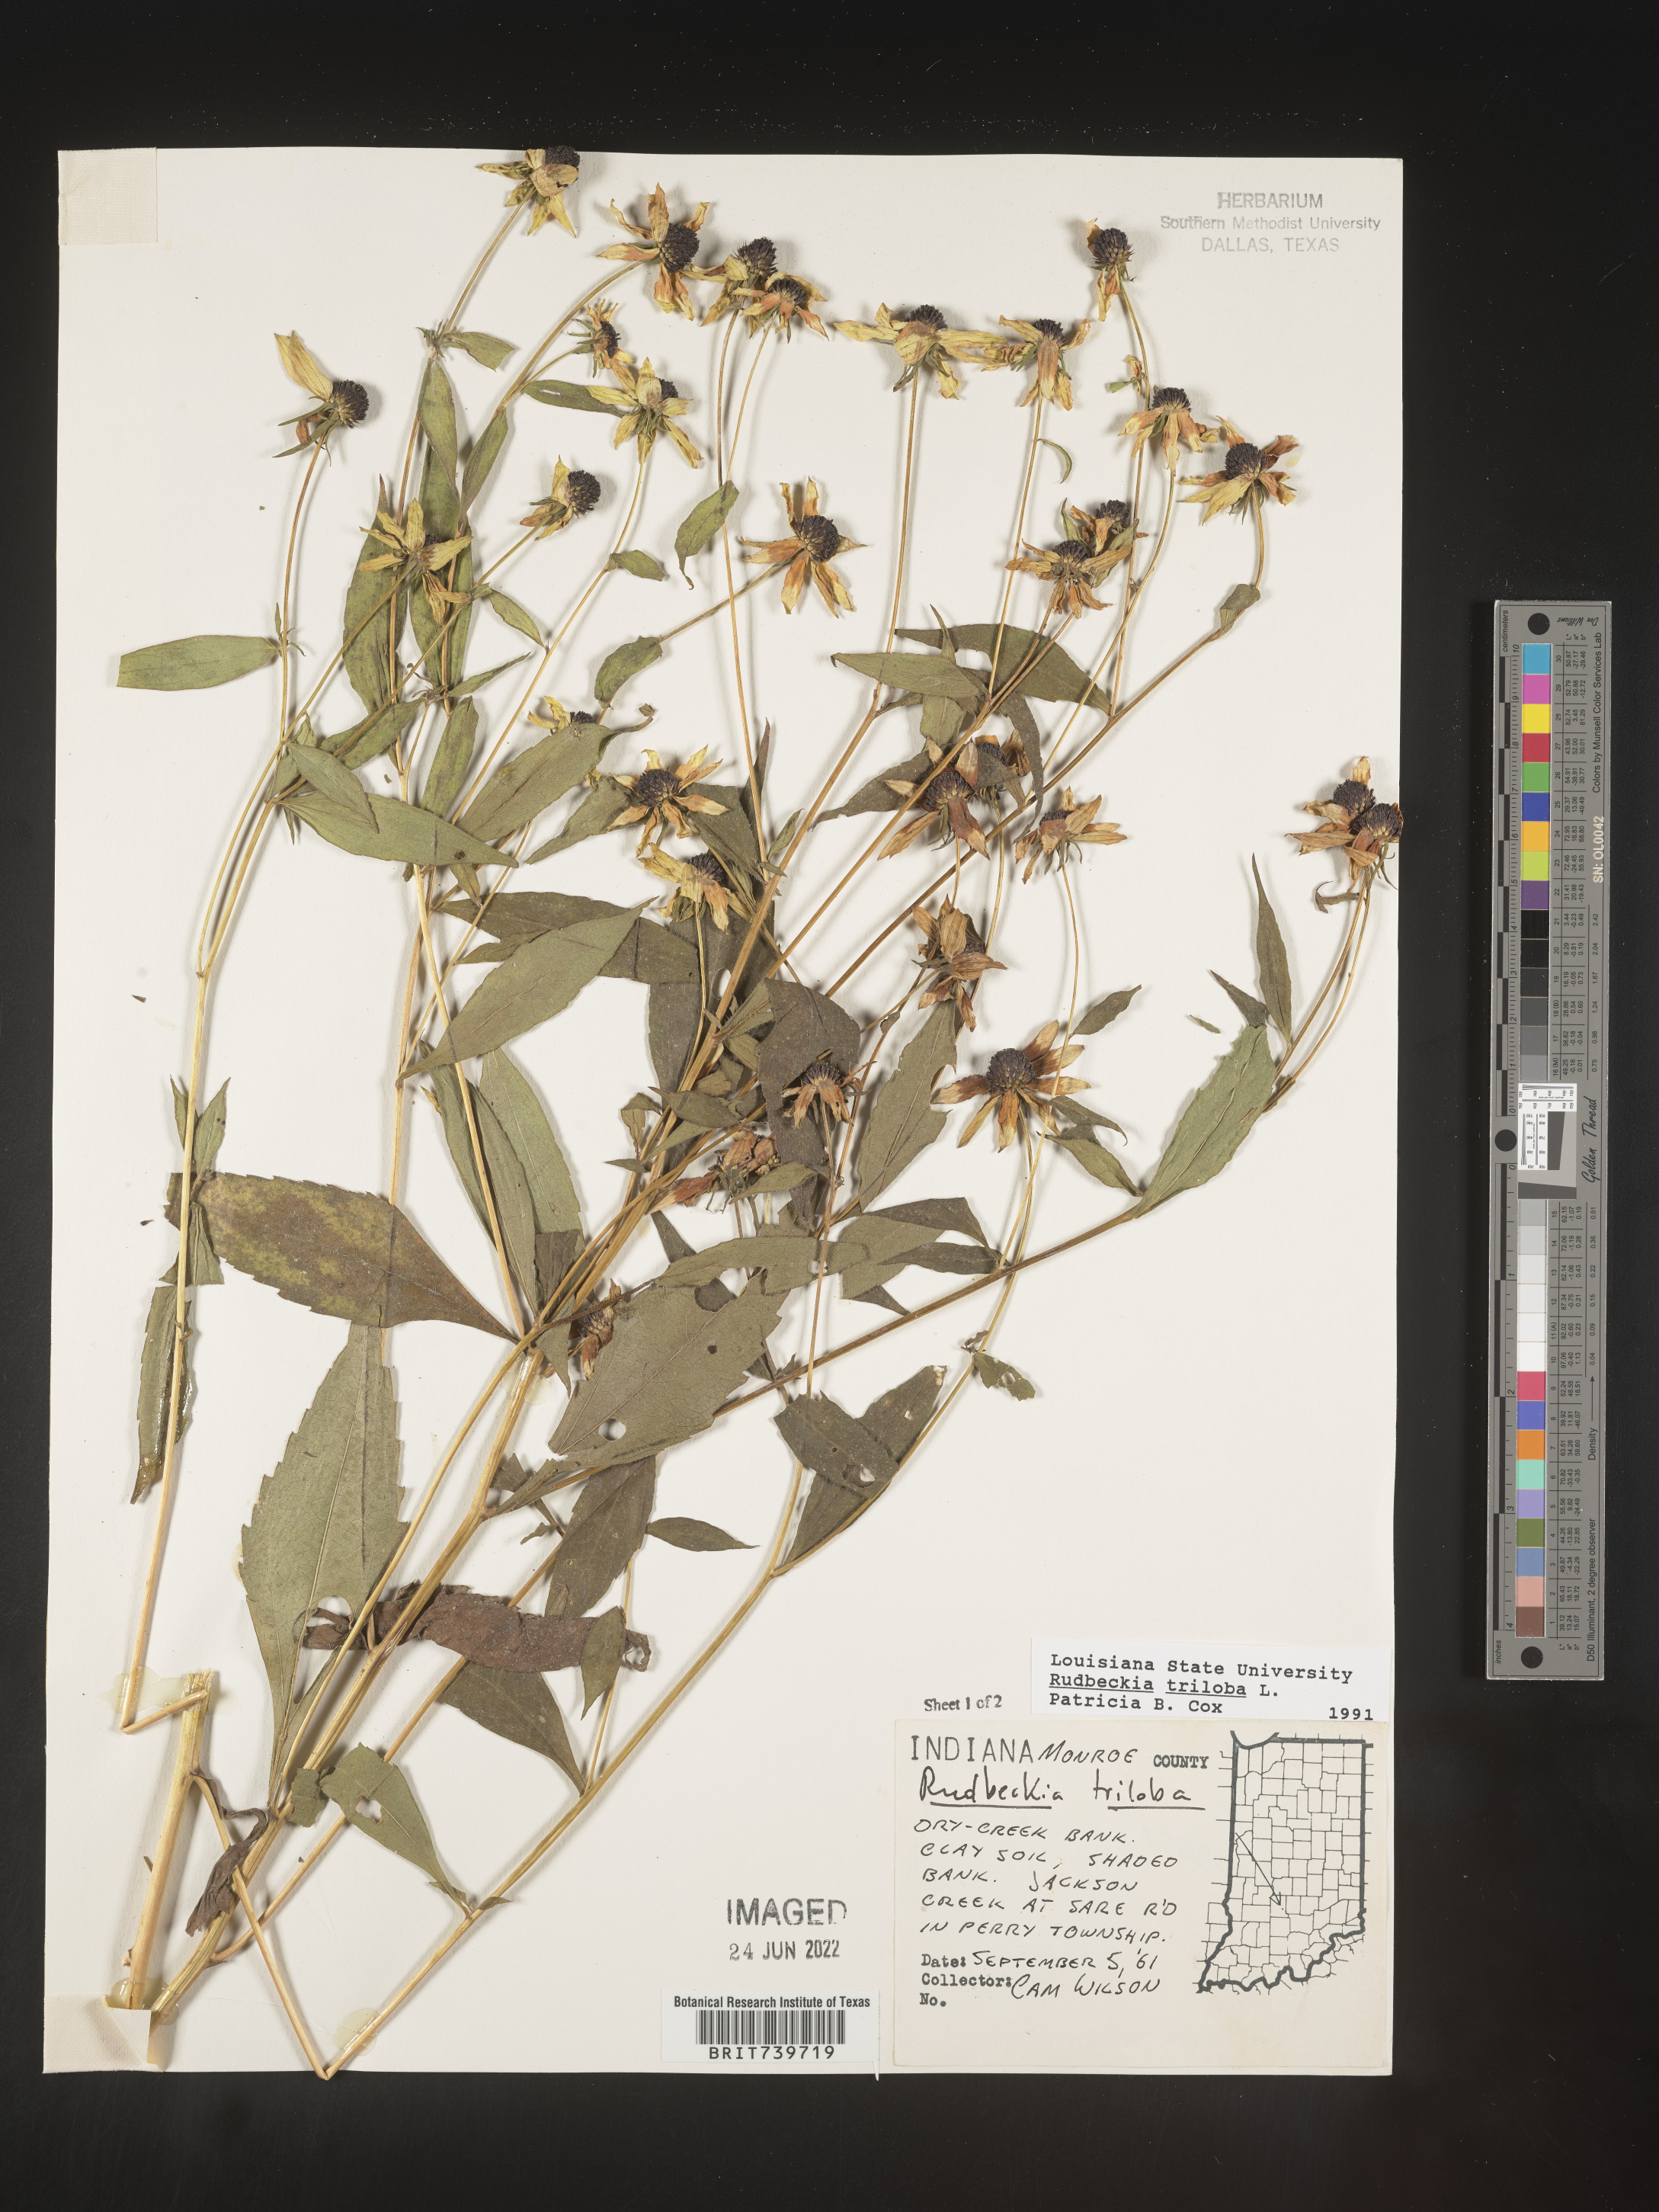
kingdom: Plantae
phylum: Tracheophyta
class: Magnoliopsida
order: Asterales
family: Asteraceae
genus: Rudbeckia
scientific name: Rudbeckia triloba
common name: Thin-leaved coneflower
